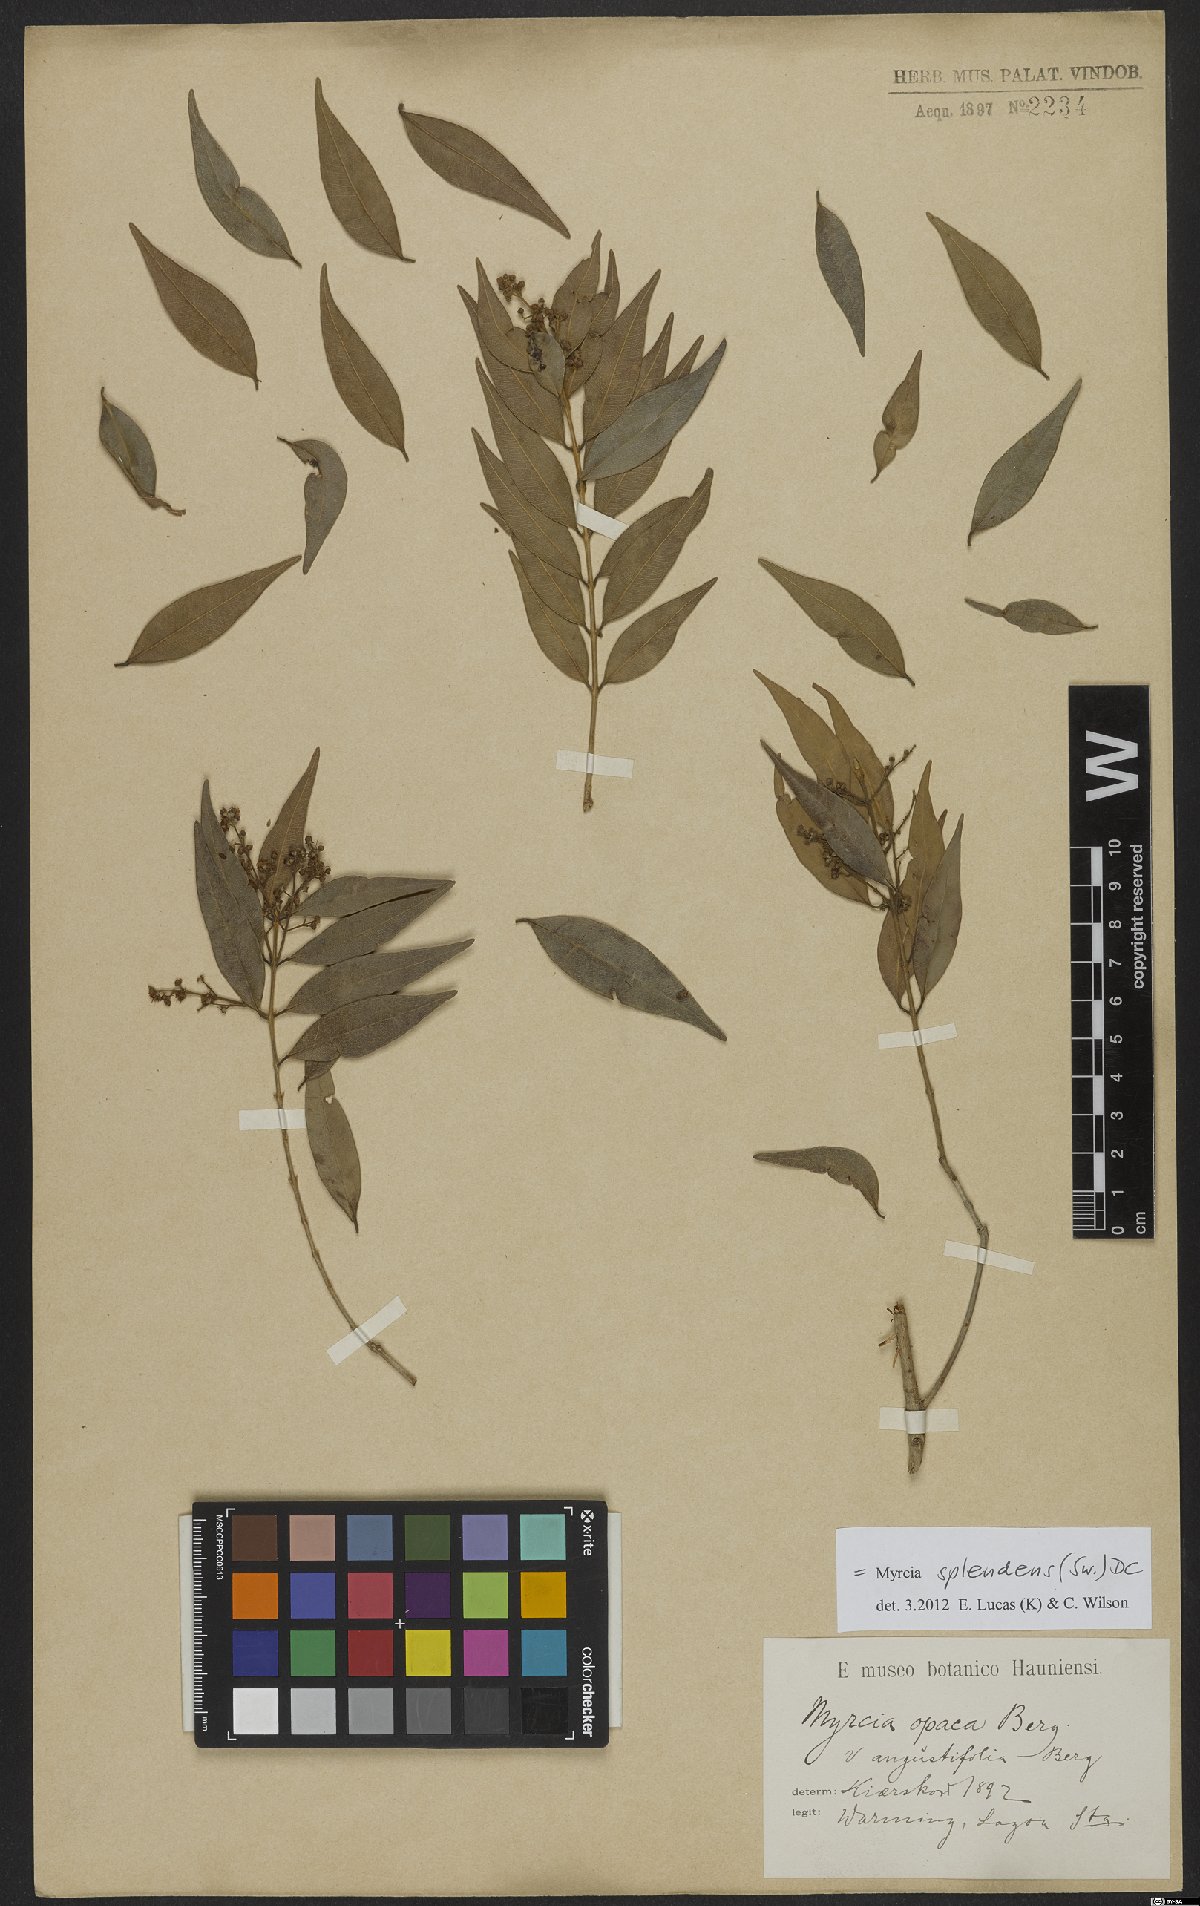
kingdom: Plantae
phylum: Tracheophyta
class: Magnoliopsida
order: Myrtales
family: Myrtaceae
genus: Myrcia
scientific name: Myrcia splendens
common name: Surinam cherry
